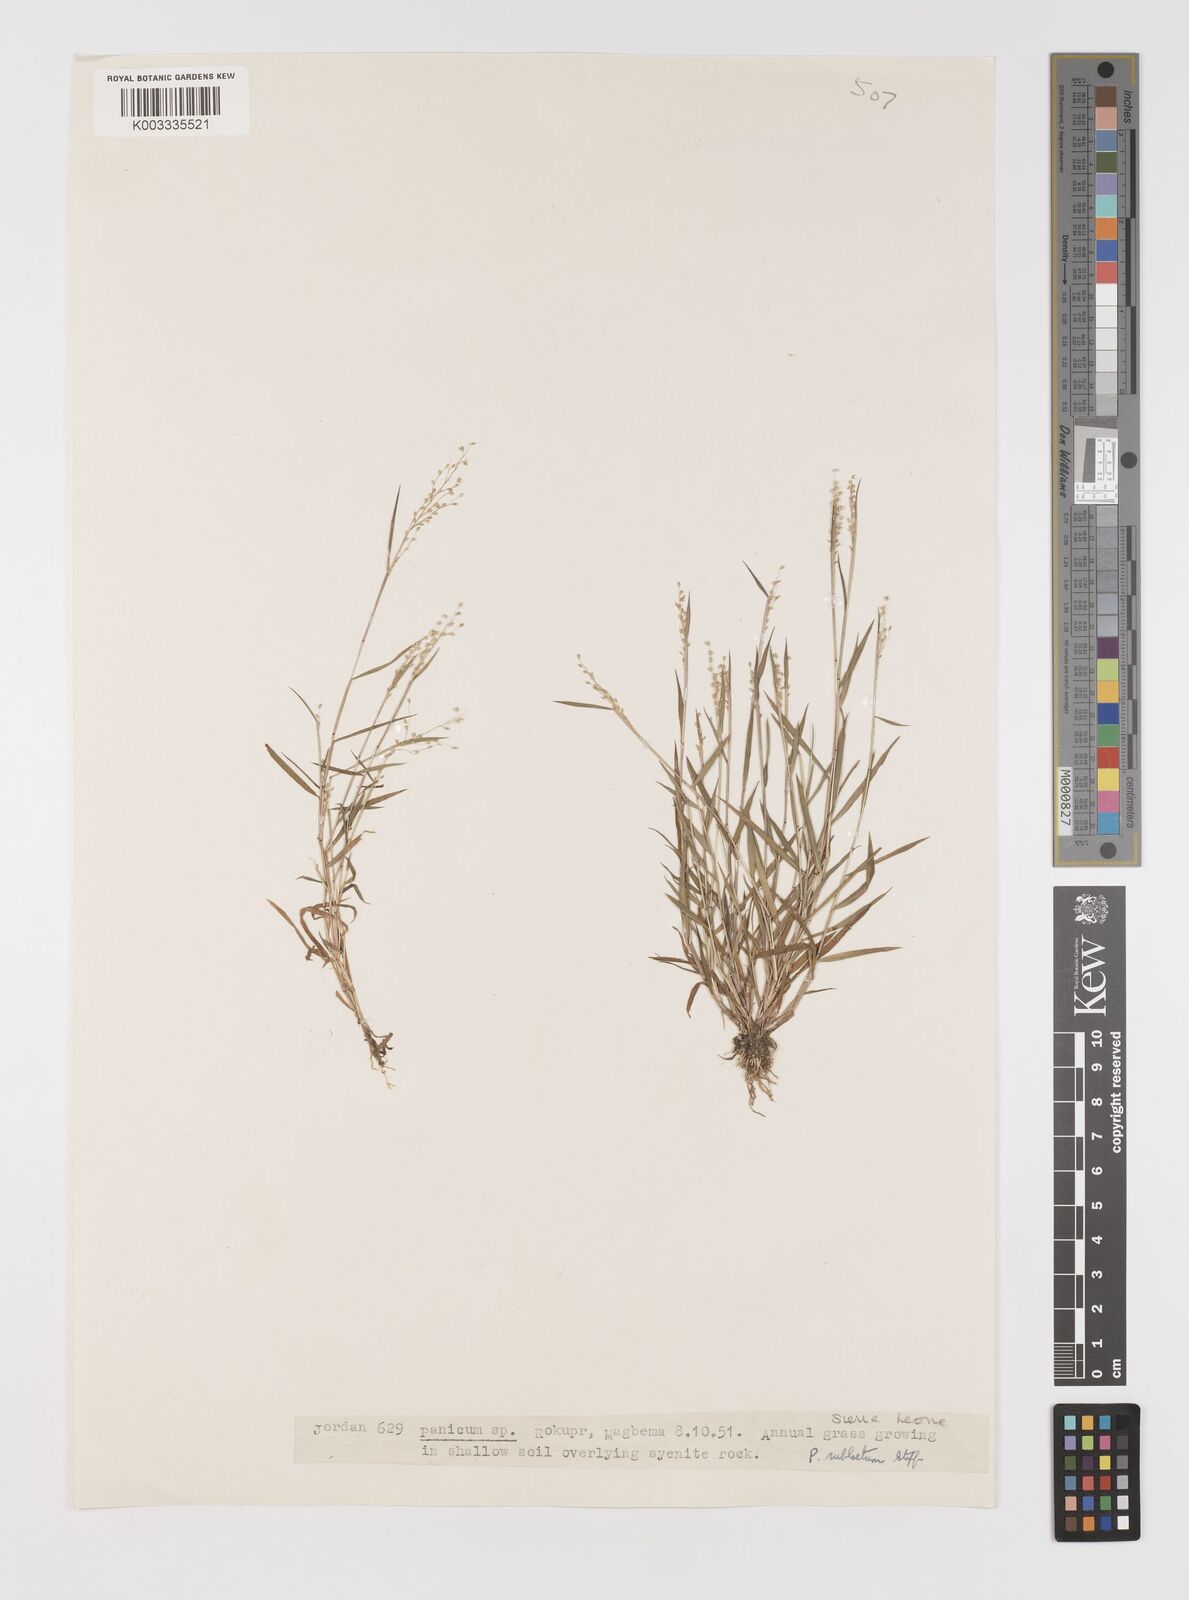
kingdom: Plantae
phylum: Tracheophyta
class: Liliopsida
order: Poales
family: Poaceae
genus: Trichanthecium
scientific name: Trichanthecium tenellum
